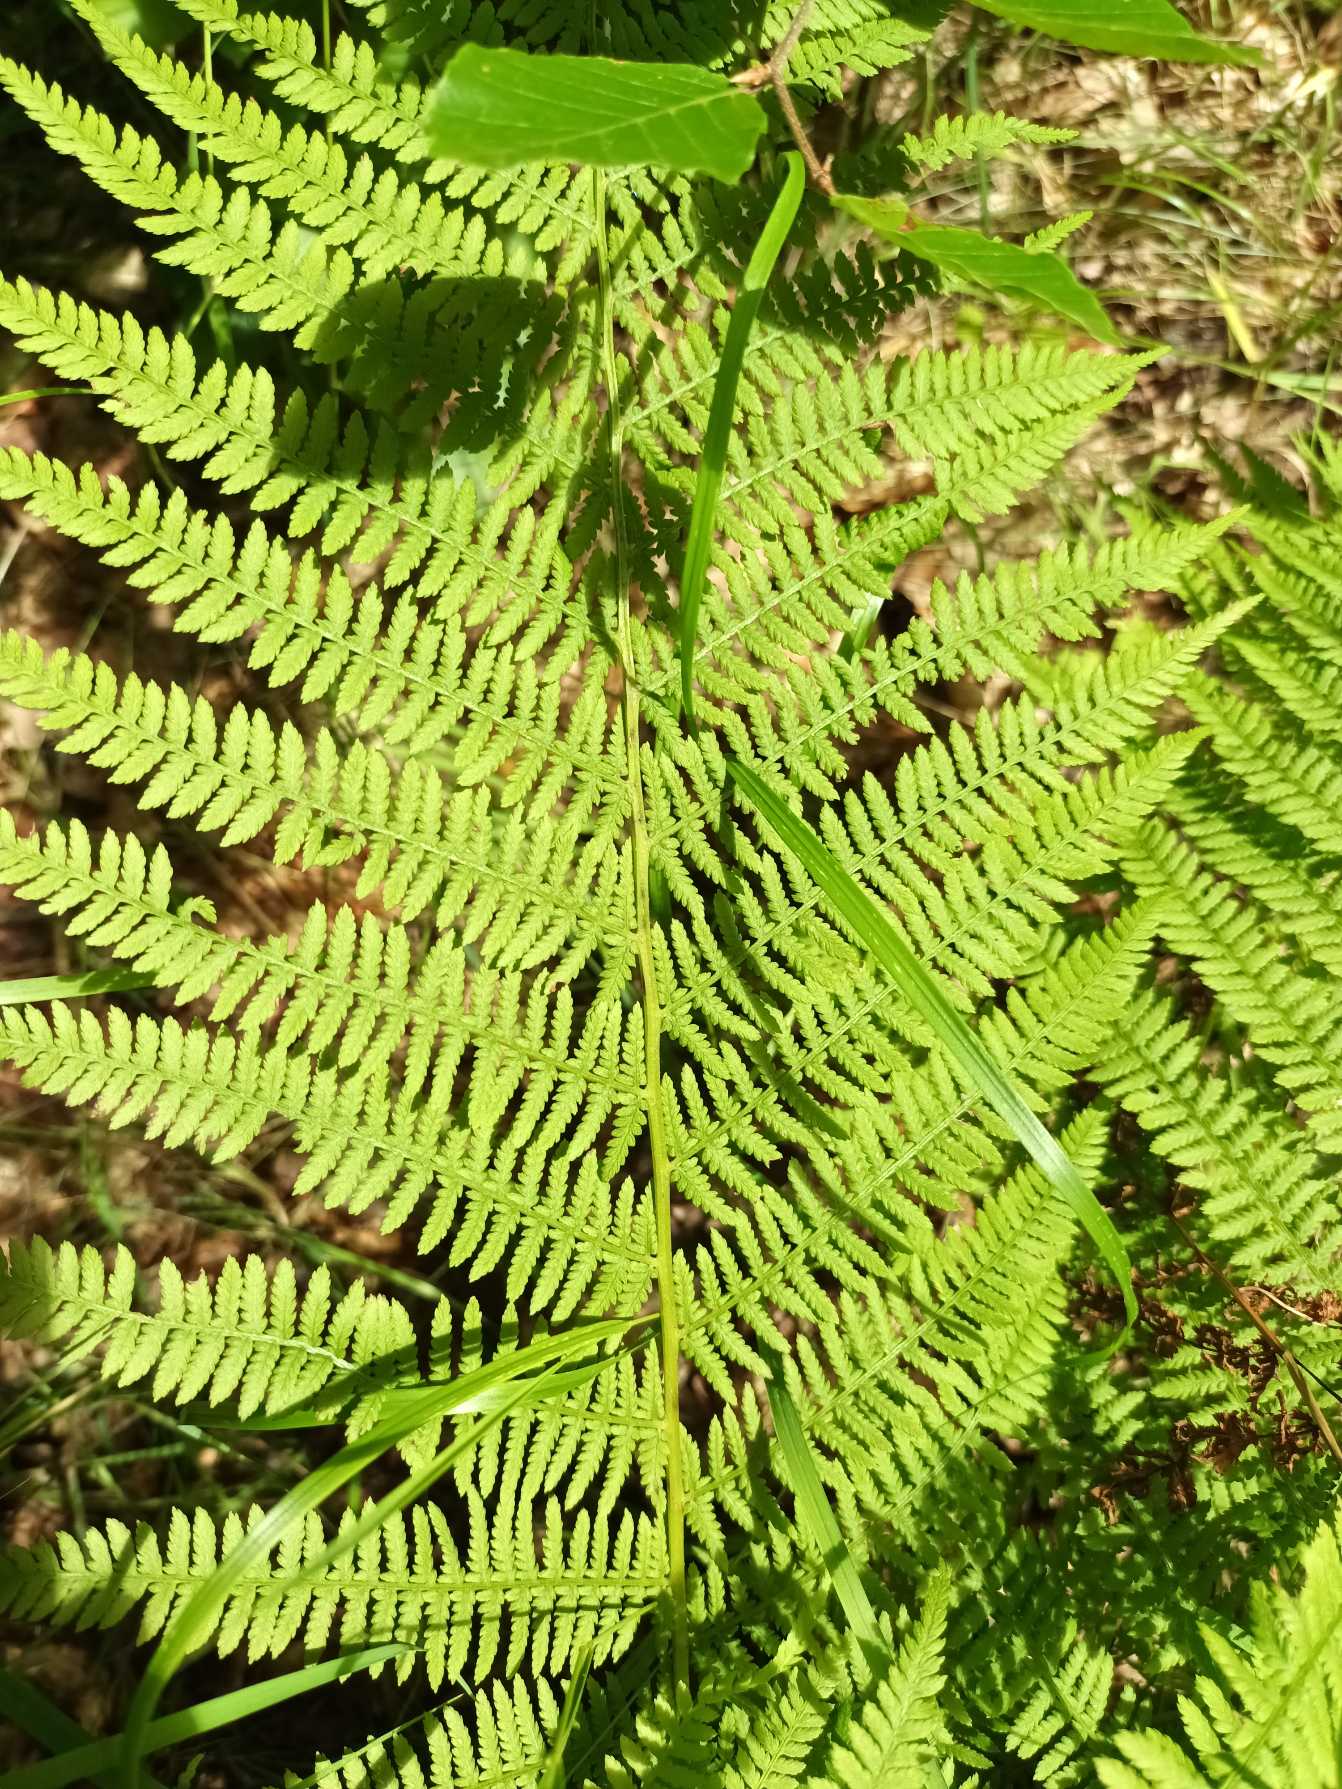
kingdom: Plantae
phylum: Tracheophyta
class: Polypodiopsida
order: Polypodiales
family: Athyriaceae
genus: Athyrium
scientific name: Athyrium filix-femina
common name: Fjerbregne
